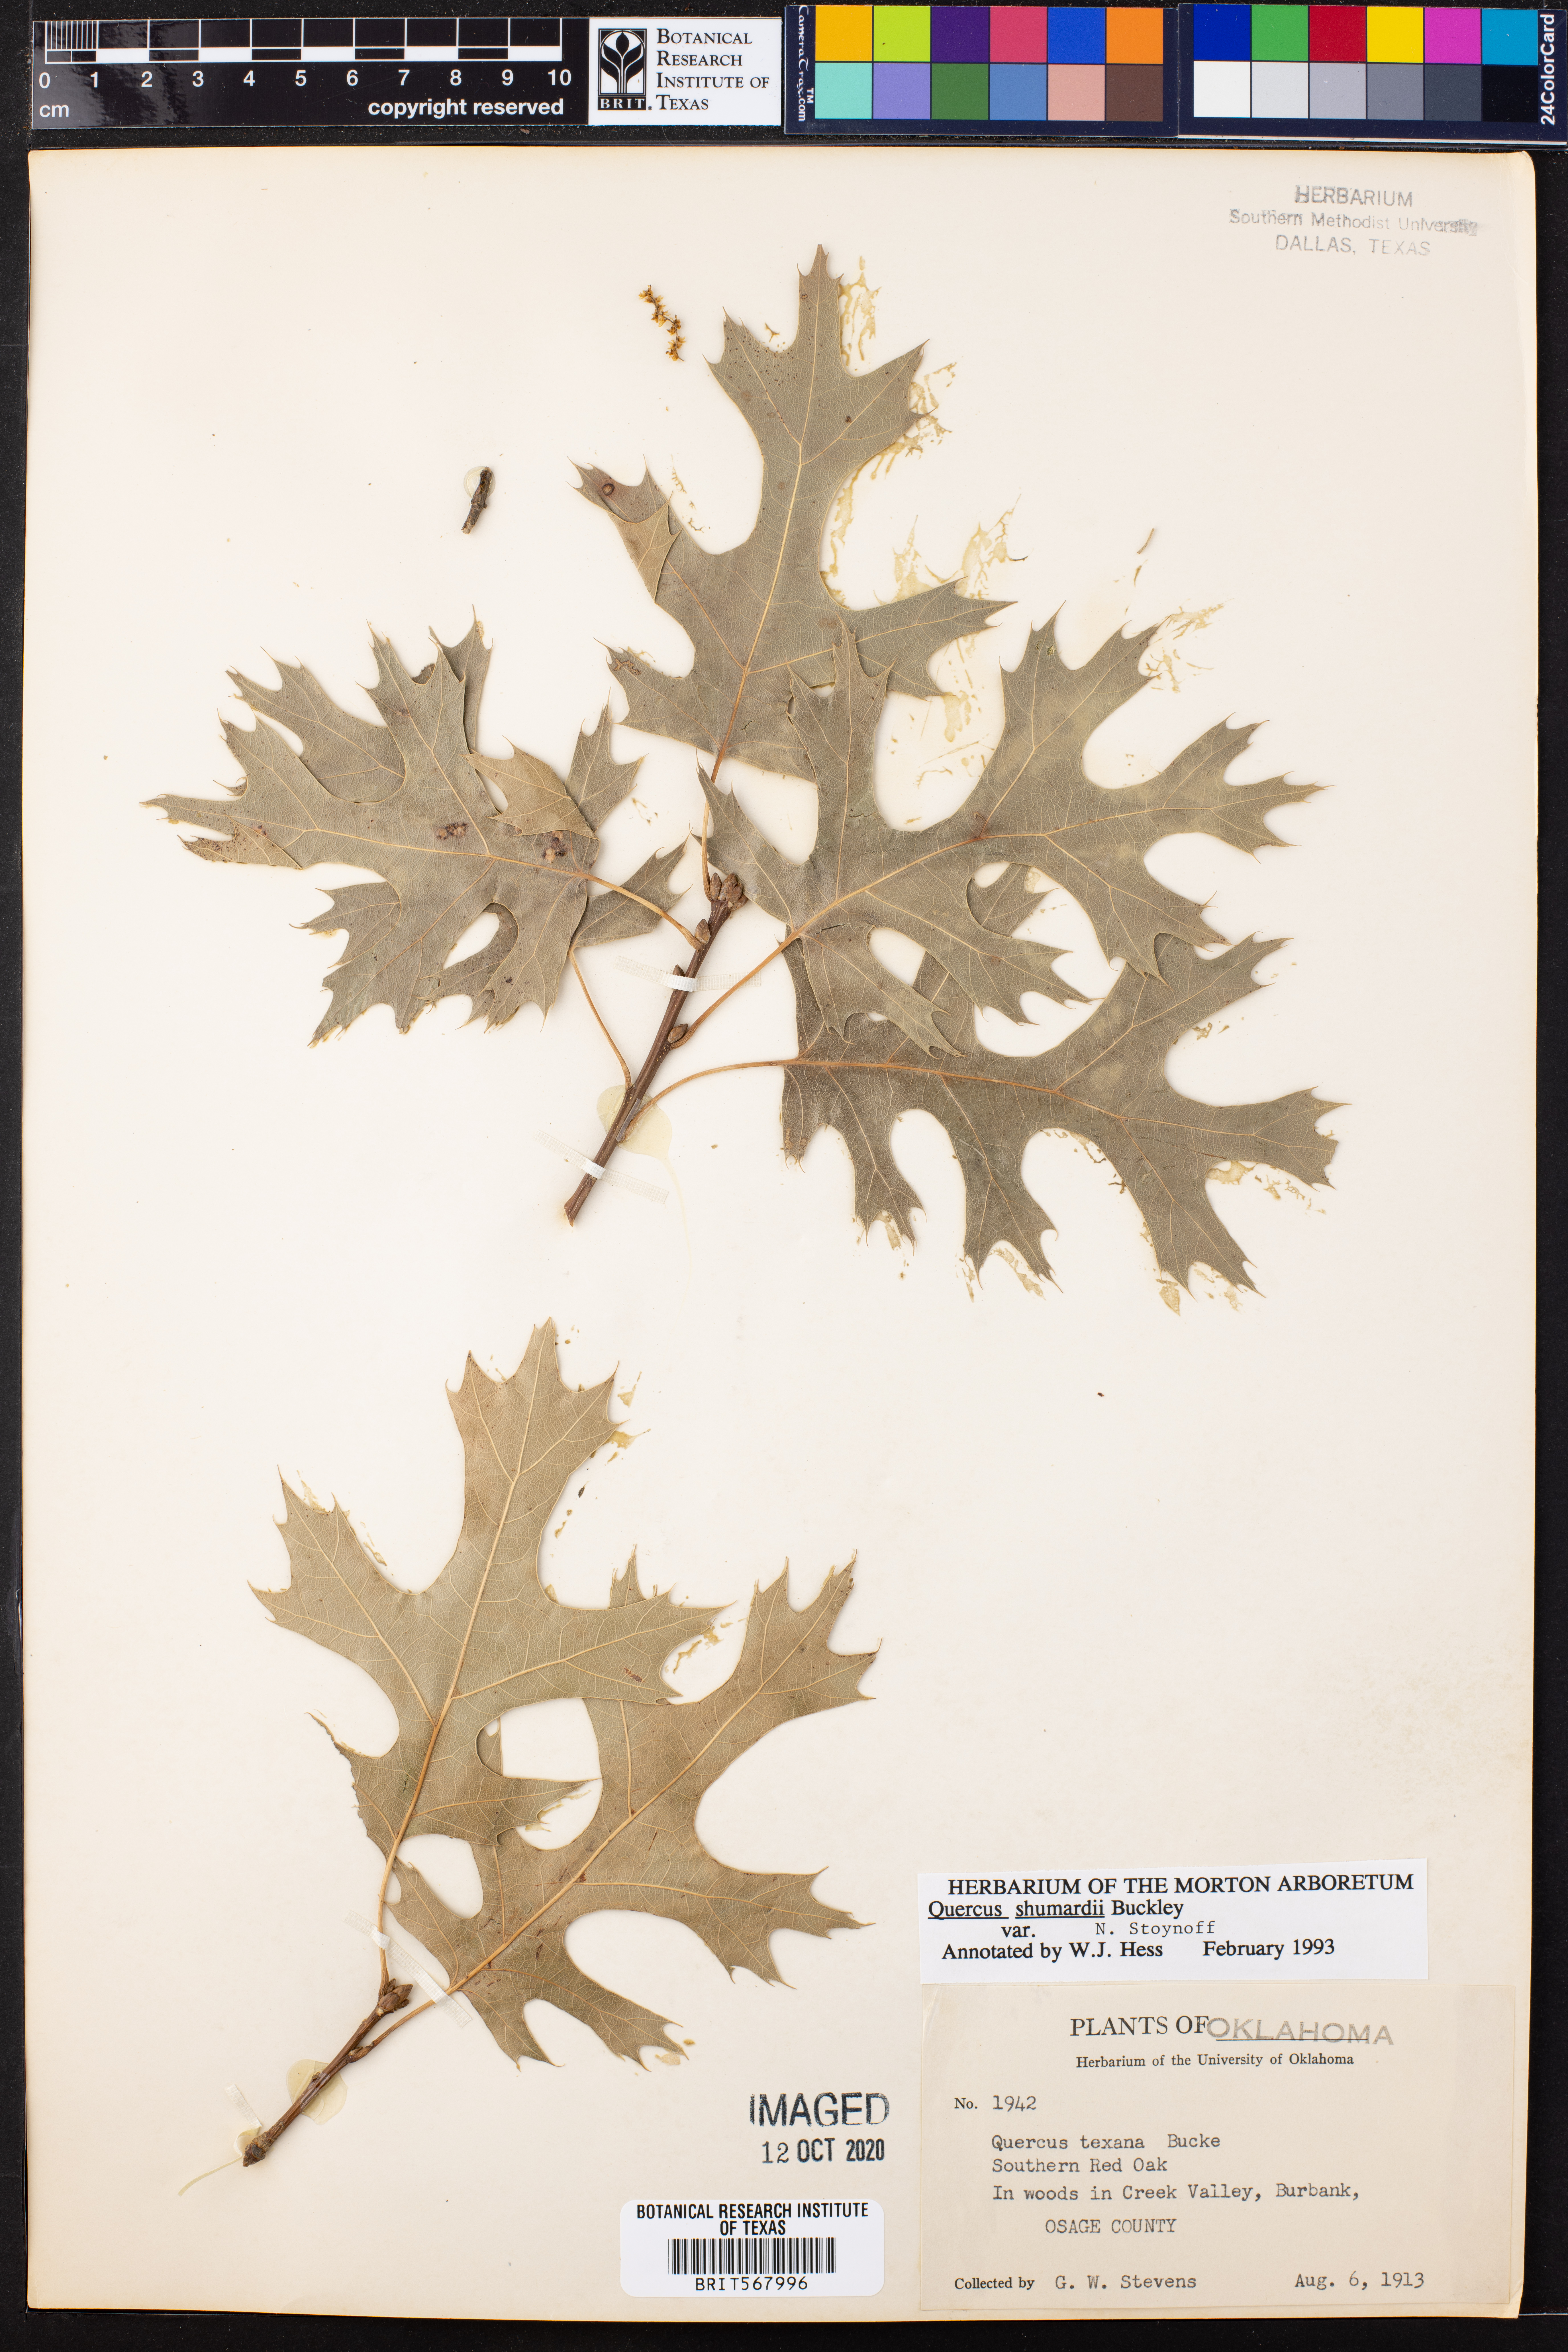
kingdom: Plantae
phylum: Tracheophyta
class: Magnoliopsida
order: Fagales
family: Fagaceae
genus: Quercus
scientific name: Quercus shumardii
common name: Shumard oak
